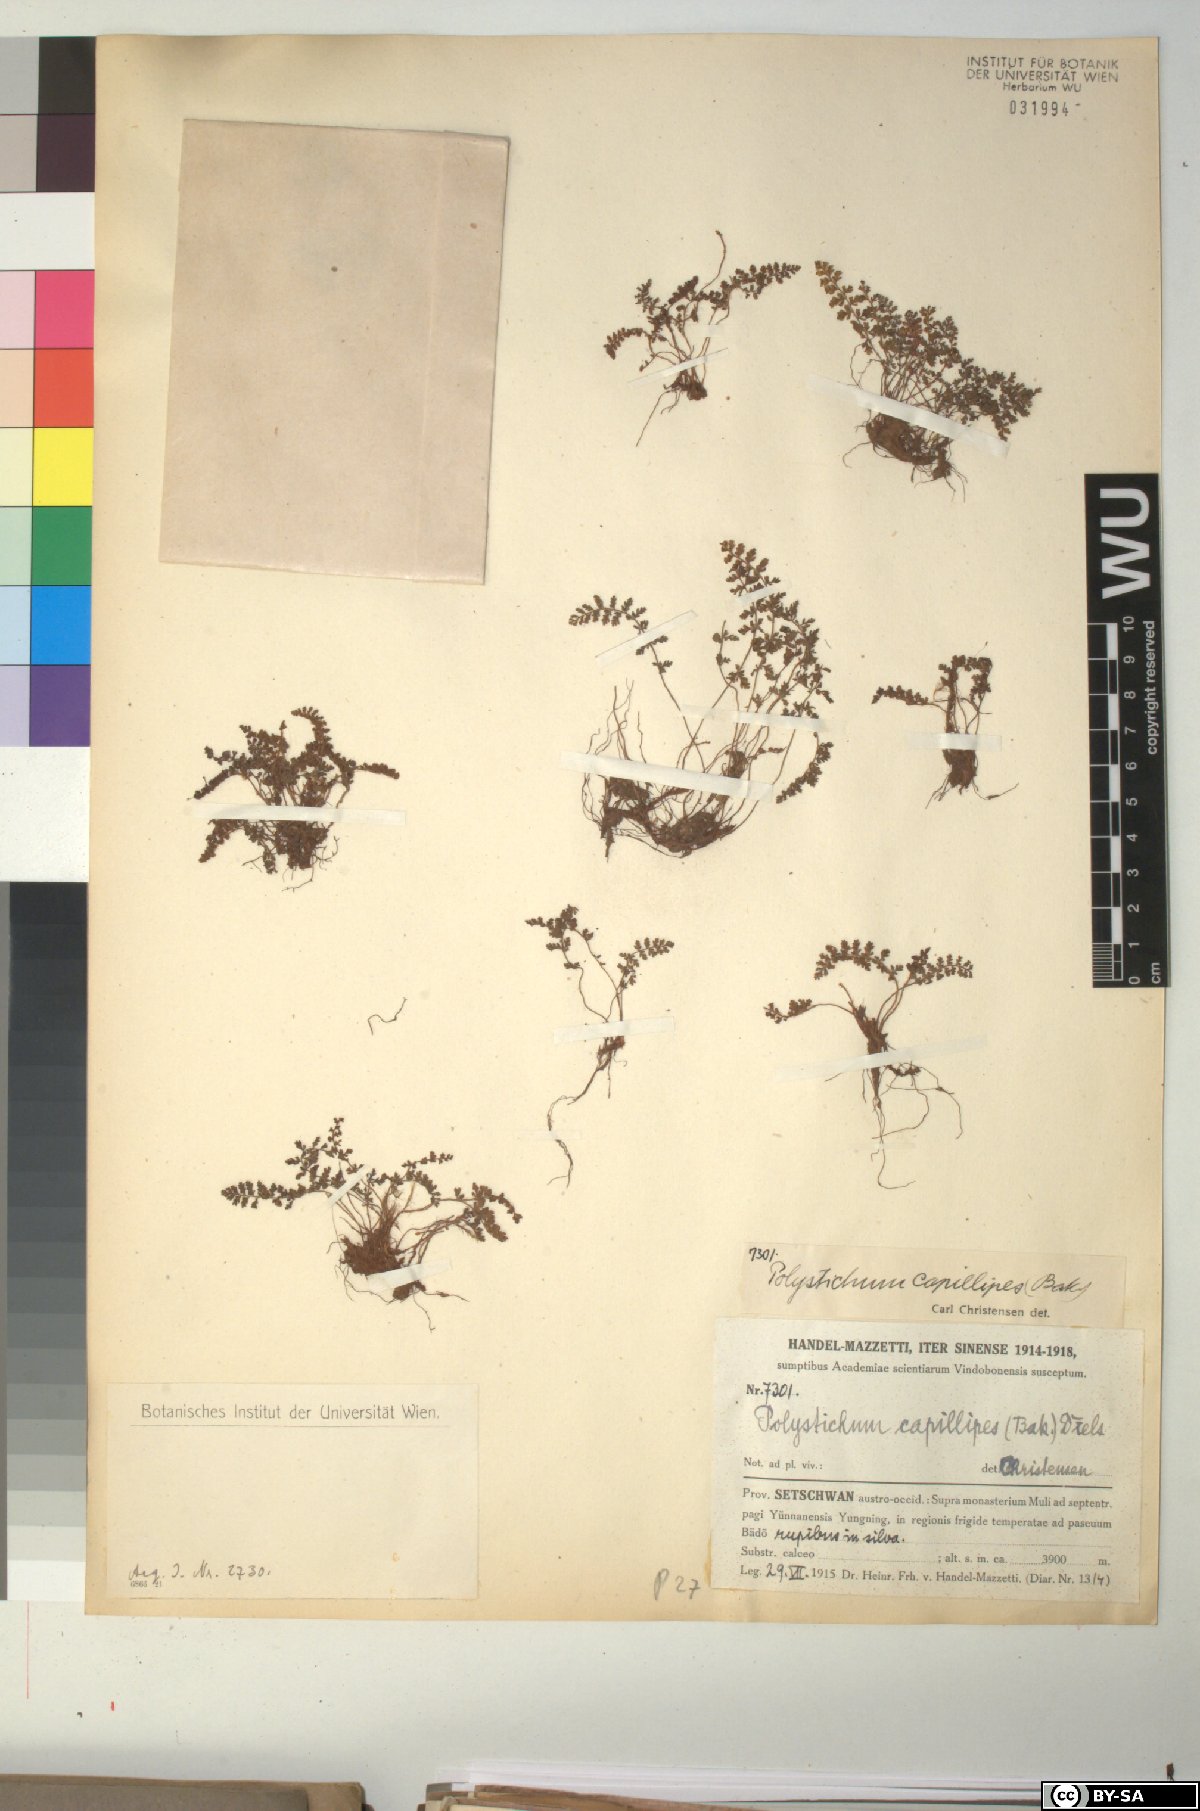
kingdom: Plantae
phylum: Tracheophyta
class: Polypodiopsida
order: Polypodiales
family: Dryopteridaceae
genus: Polystichum
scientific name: Polystichum thomsonii
